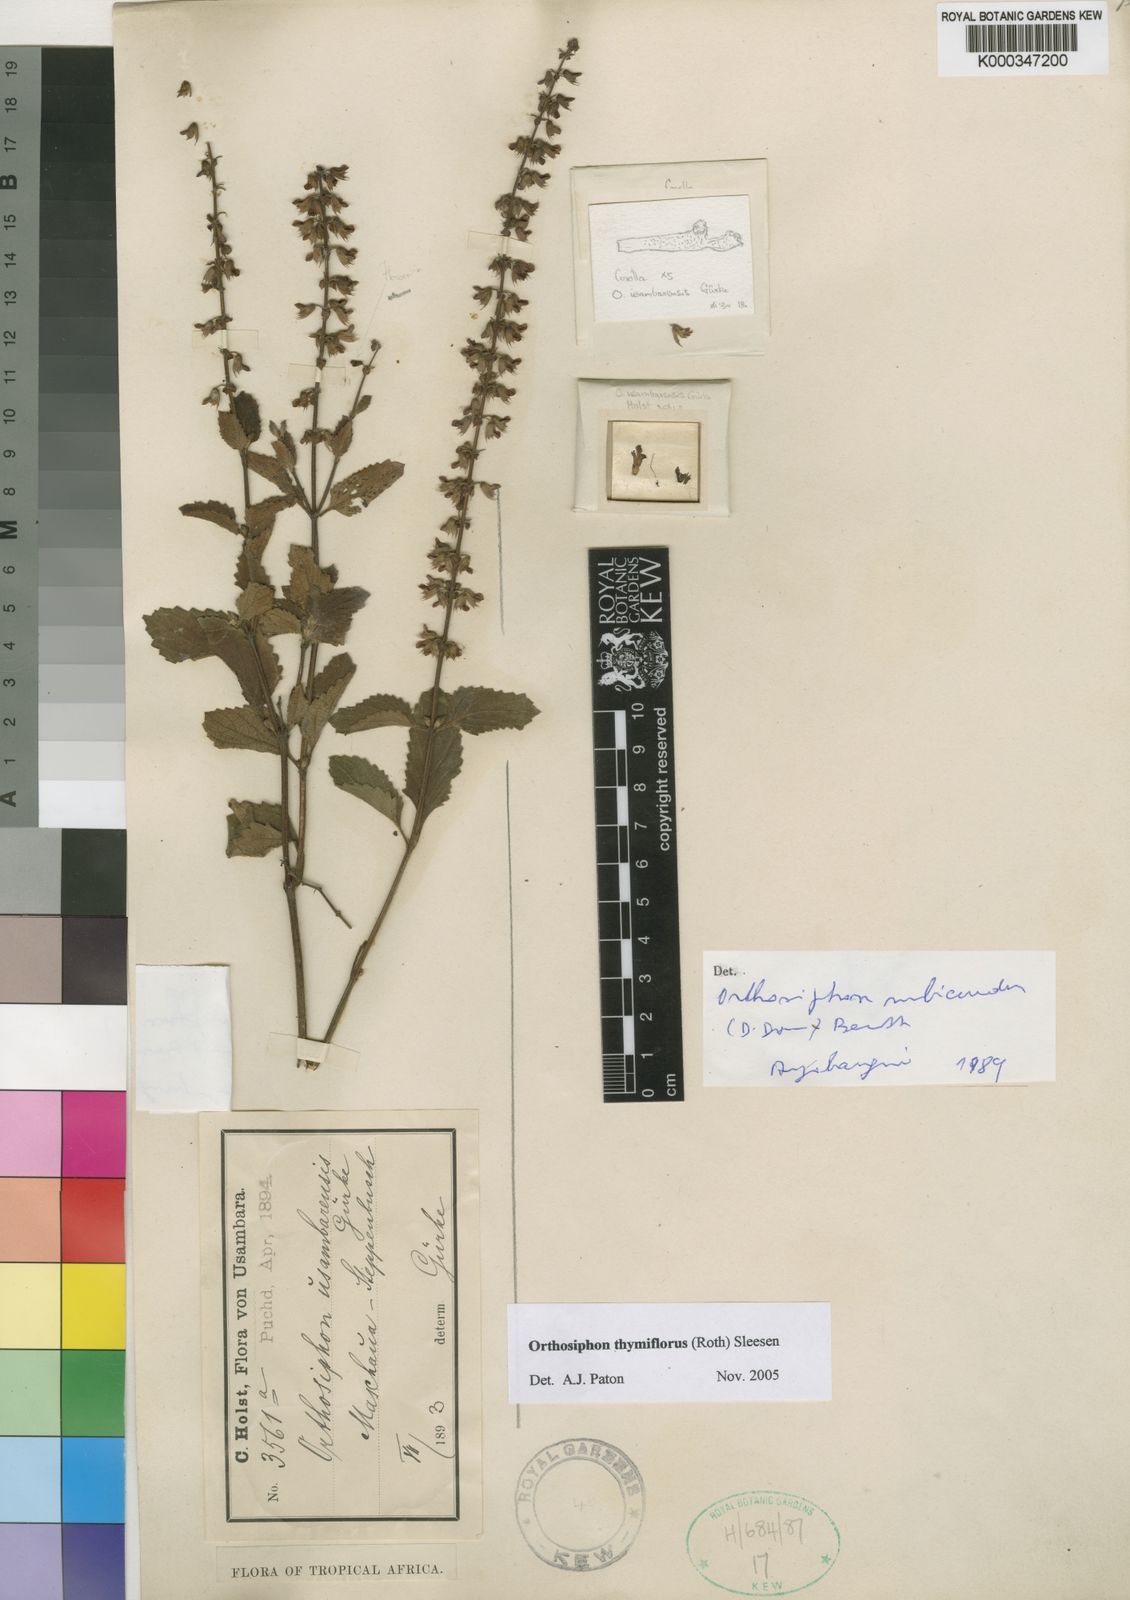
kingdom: Plantae
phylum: Tracheophyta
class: Magnoliopsida
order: Lamiales
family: Lamiaceae
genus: Orthosiphon
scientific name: Orthosiphon thymiflorus
